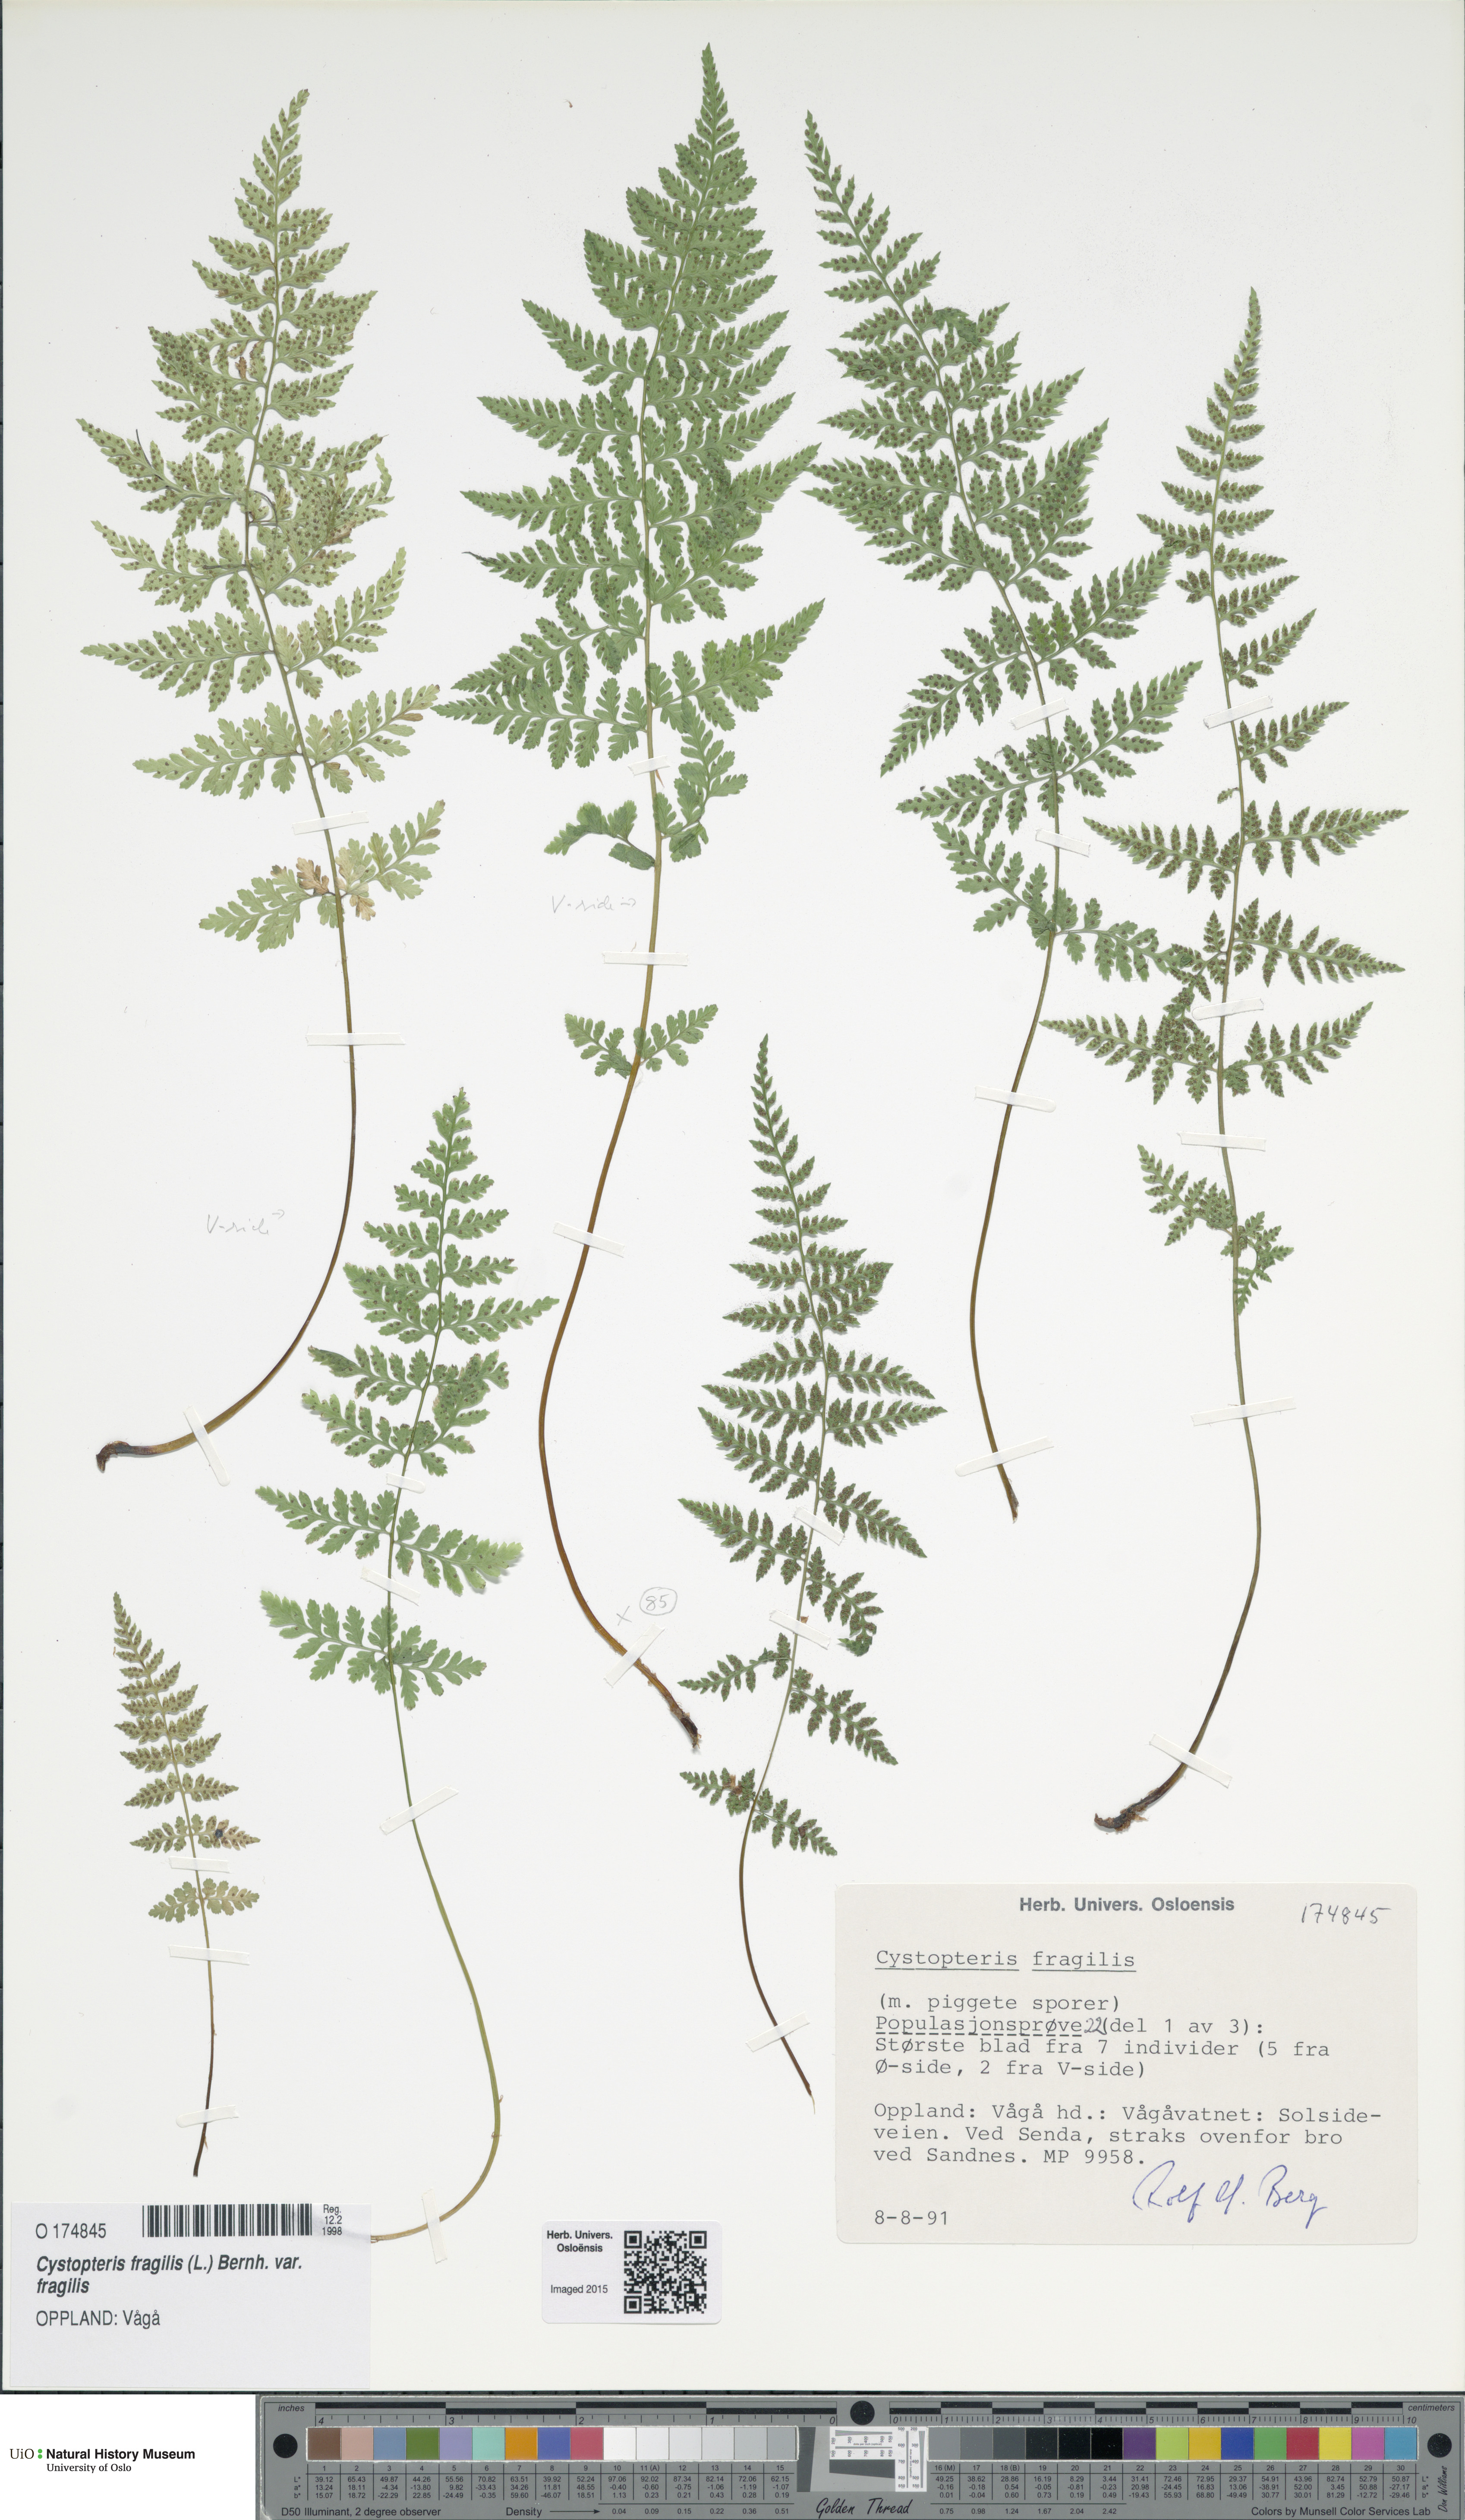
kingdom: Plantae
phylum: Tracheophyta
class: Polypodiopsida
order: Polypodiales
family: Cystopteridaceae
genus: Cystopteris
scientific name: Cystopteris fragilis
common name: Brittle bladder fern
